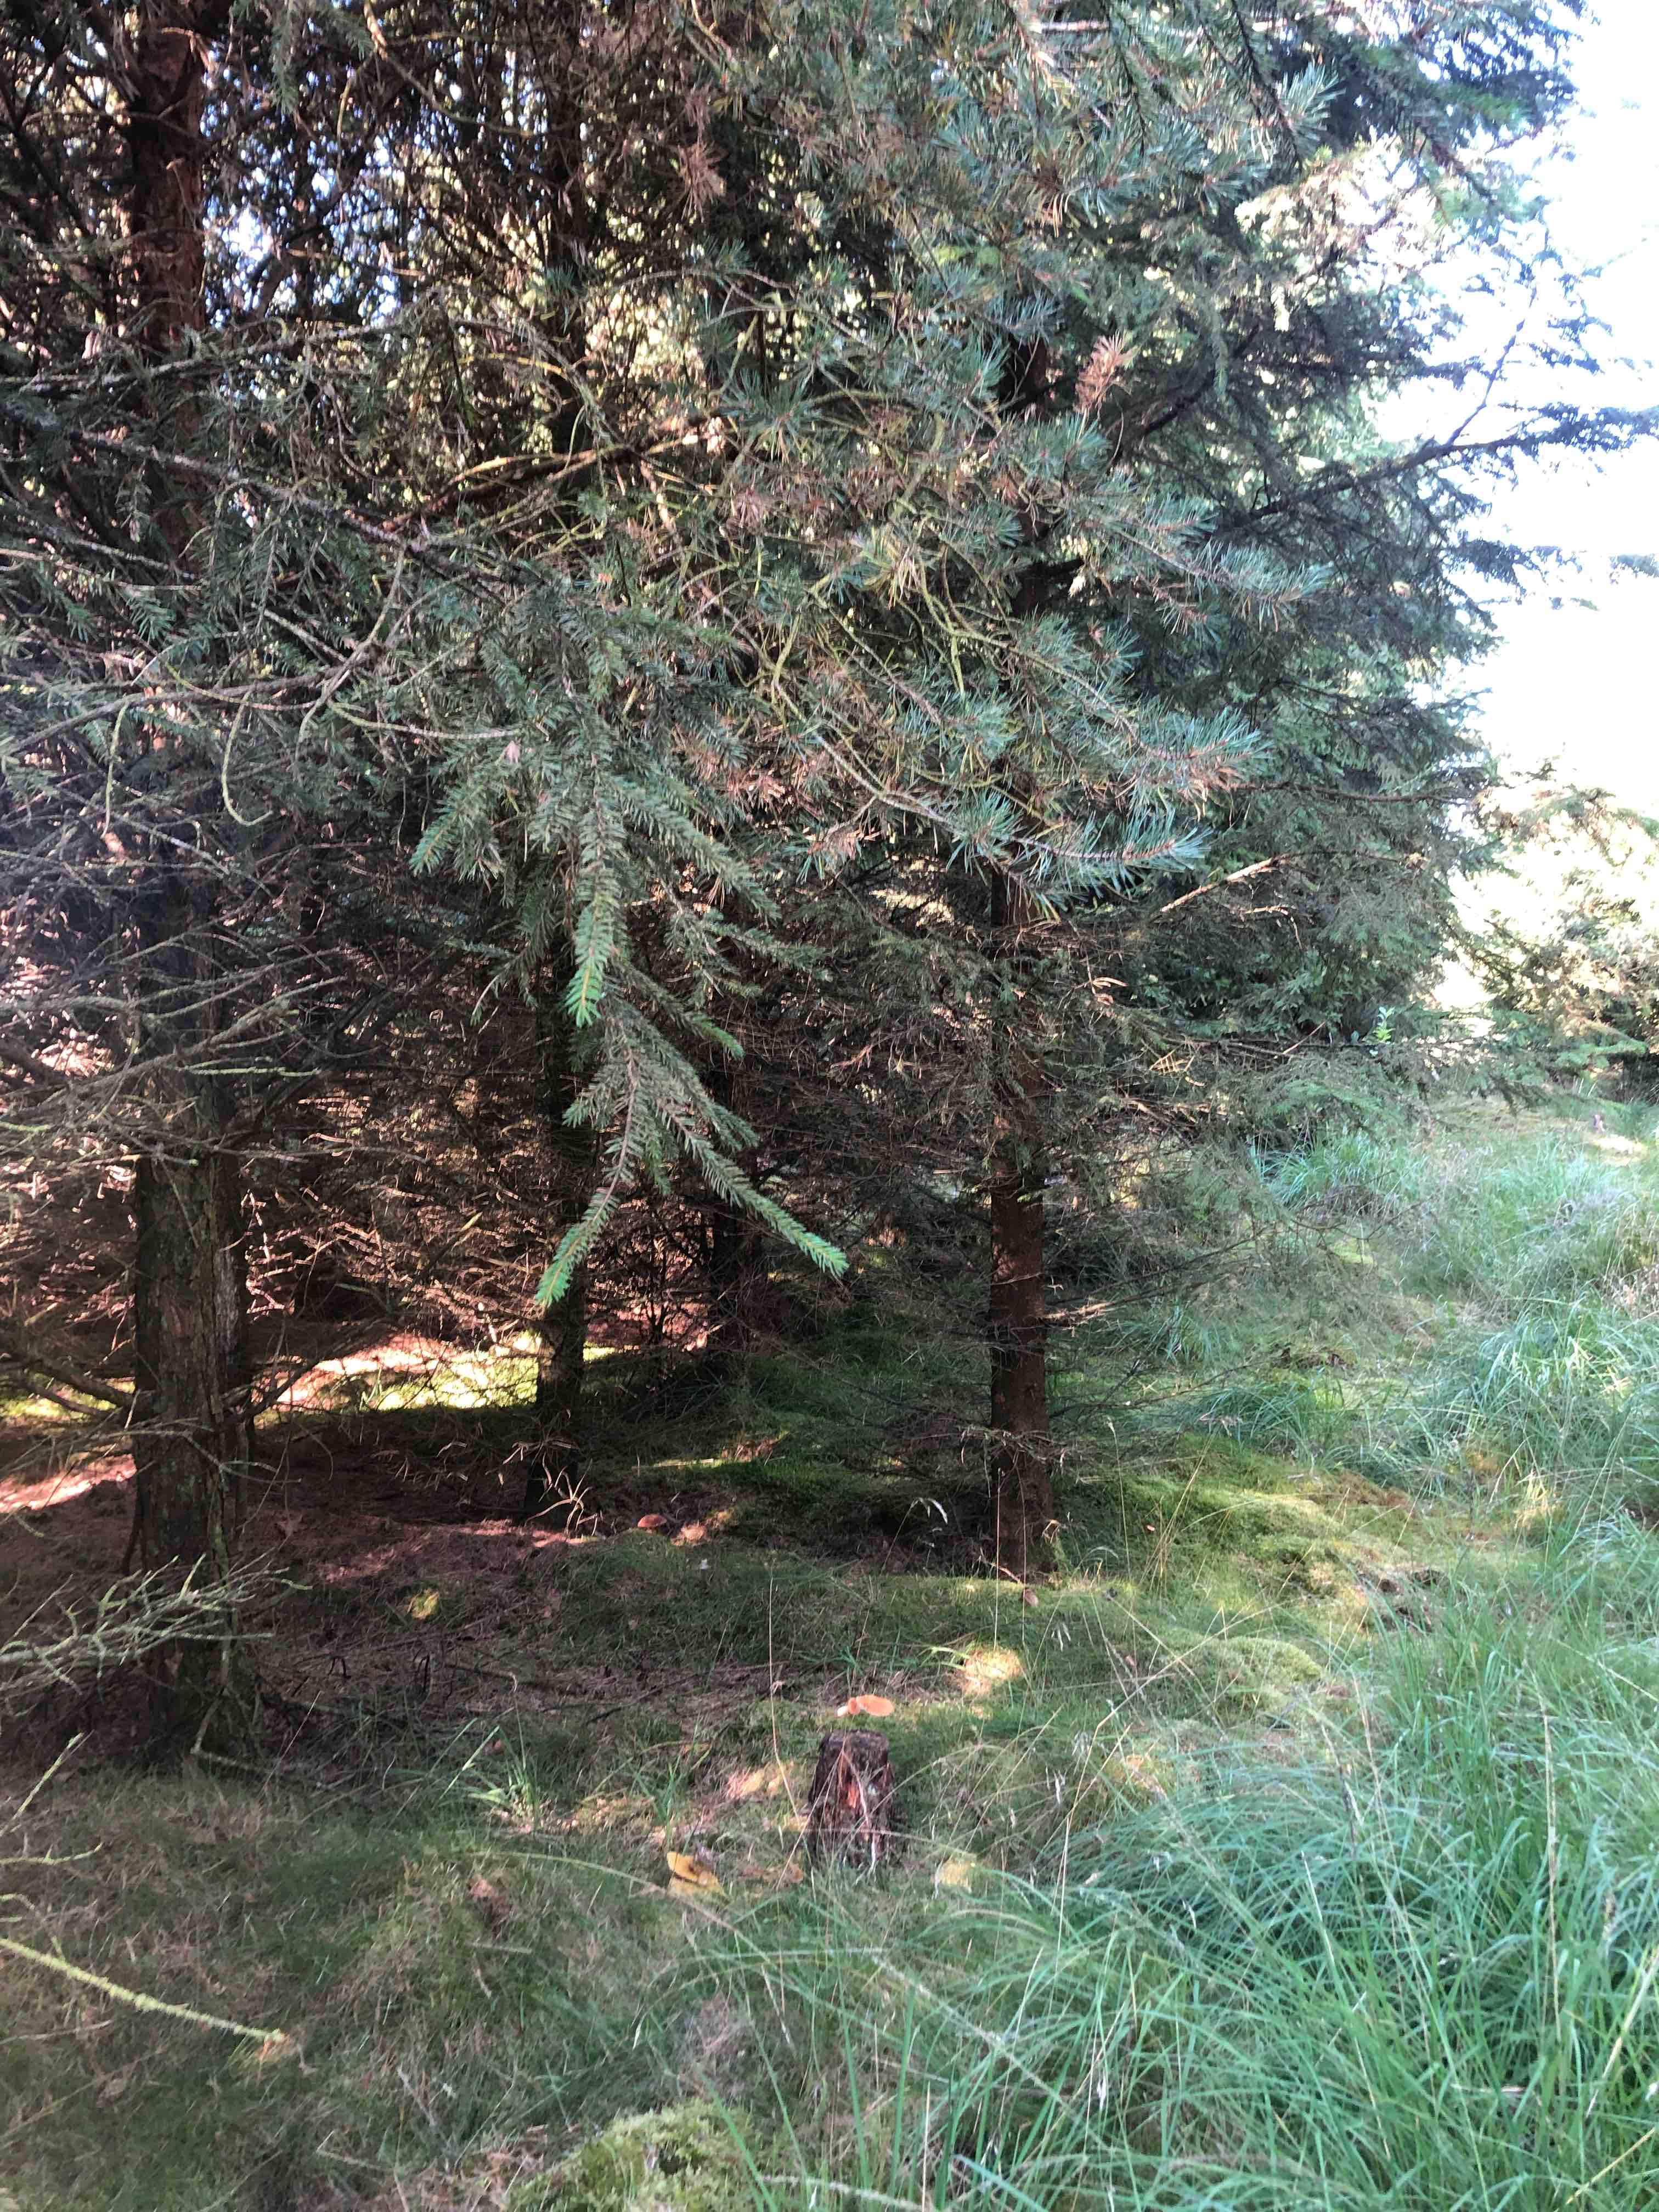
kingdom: Fungi
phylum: Basidiomycota
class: Agaricomycetes
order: Boletales
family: Suillaceae
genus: Suillus
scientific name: Suillus cavipes
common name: hulstokket slimrørhat
